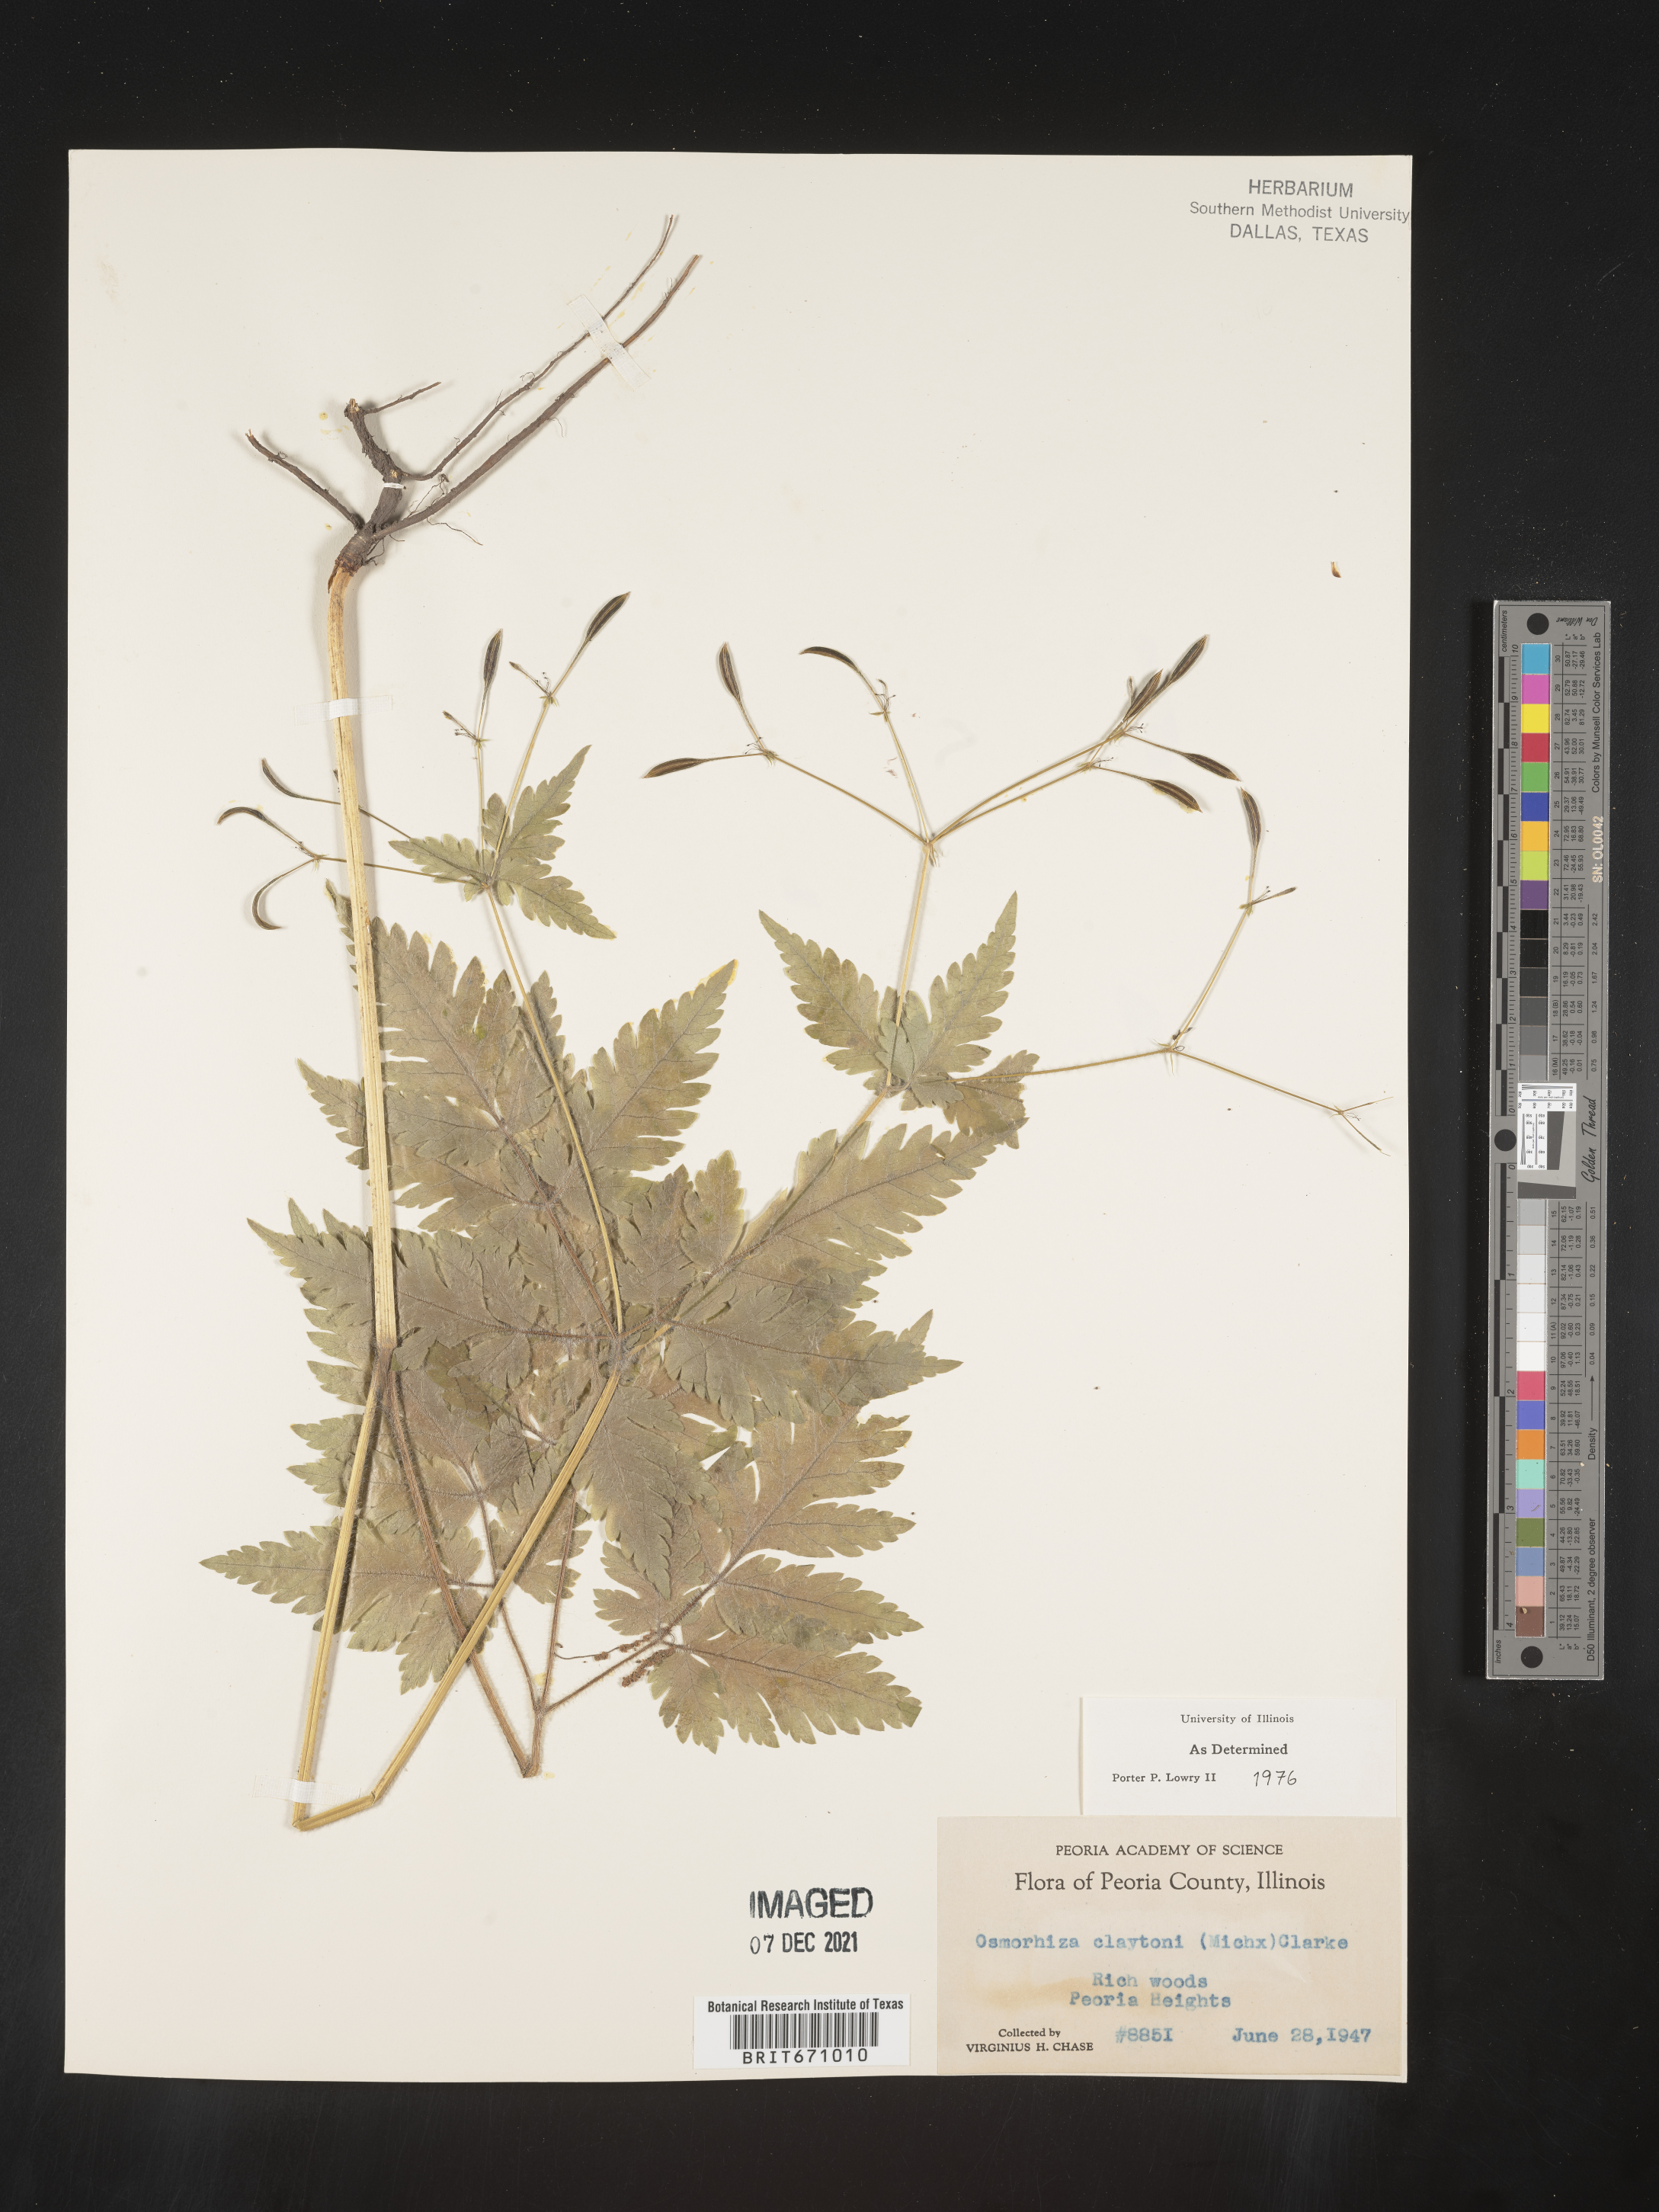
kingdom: Plantae
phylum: Tracheophyta
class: Magnoliopsida
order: Apiales
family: Apiaceae
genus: Osmorhiza
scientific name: Osmorhiza claytonii
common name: Hairy sweet cicely
